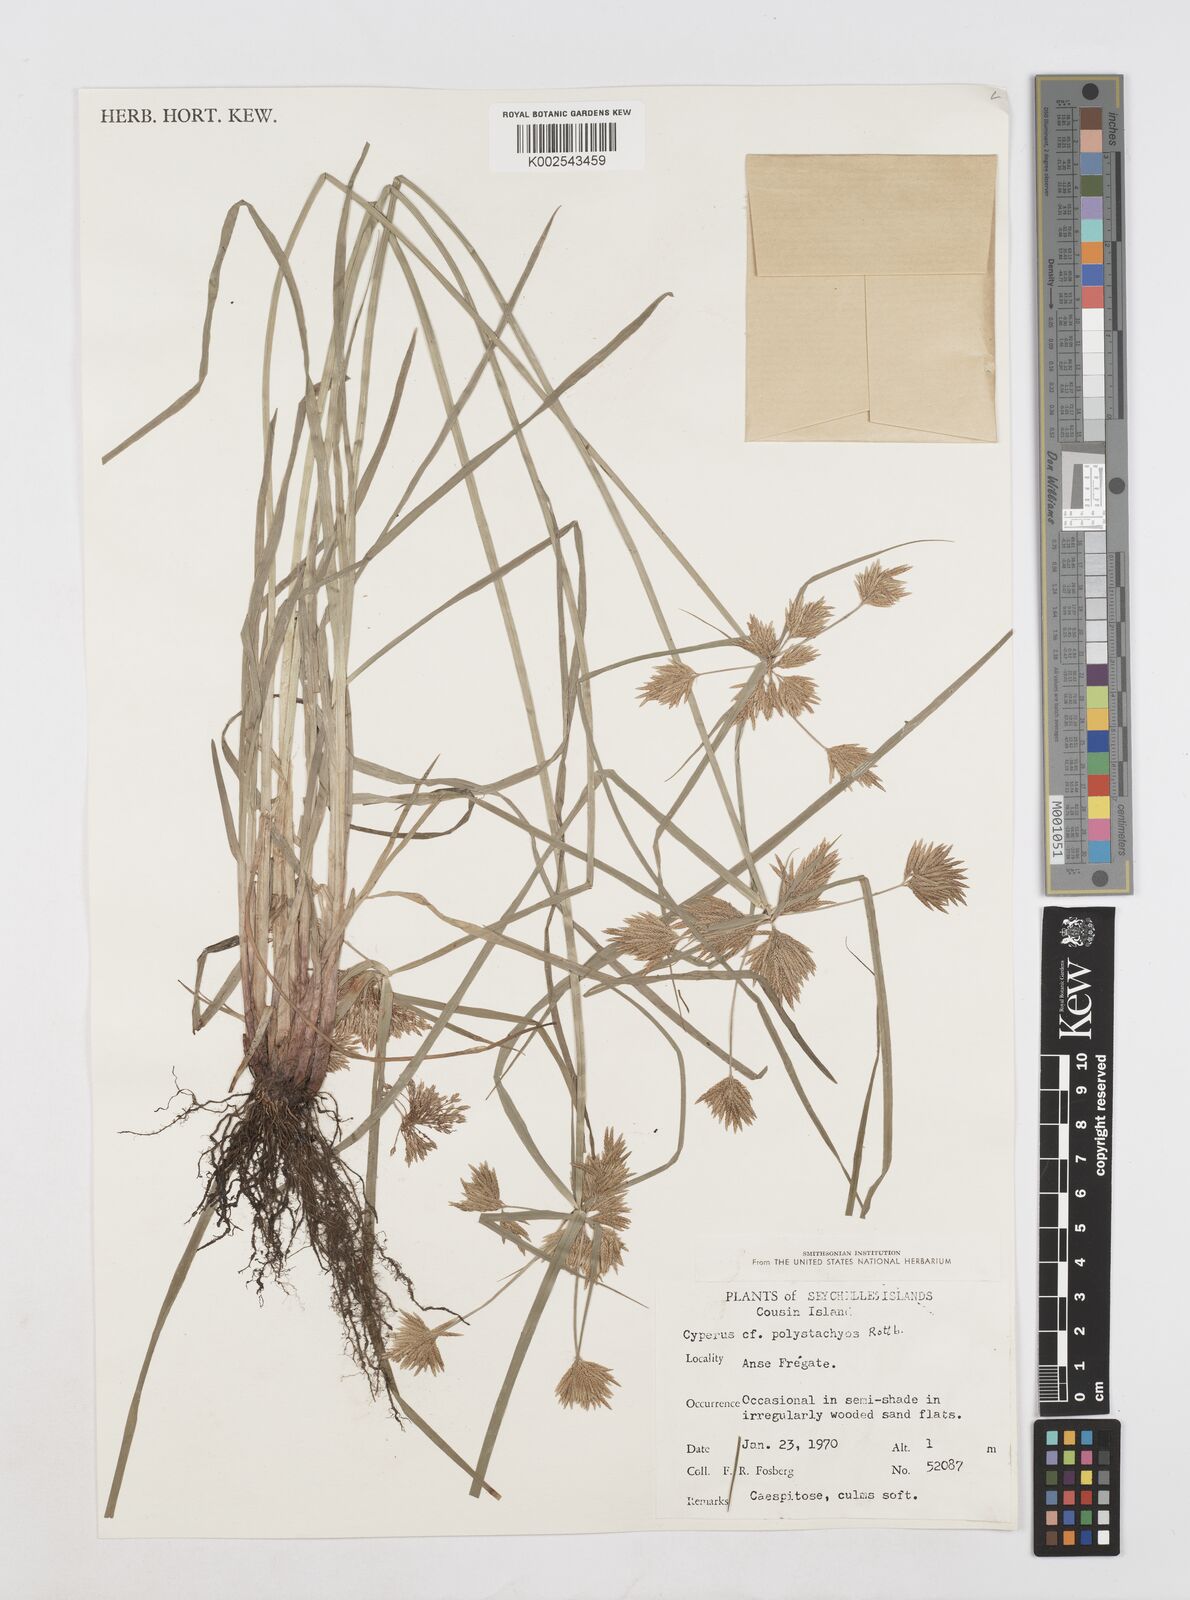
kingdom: Plantae
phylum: Tracheophyta
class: Liliopsida
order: Poales
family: Cyperaceae
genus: Cyperus
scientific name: Cyperus polystachyos
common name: Bunchy flat sedge
